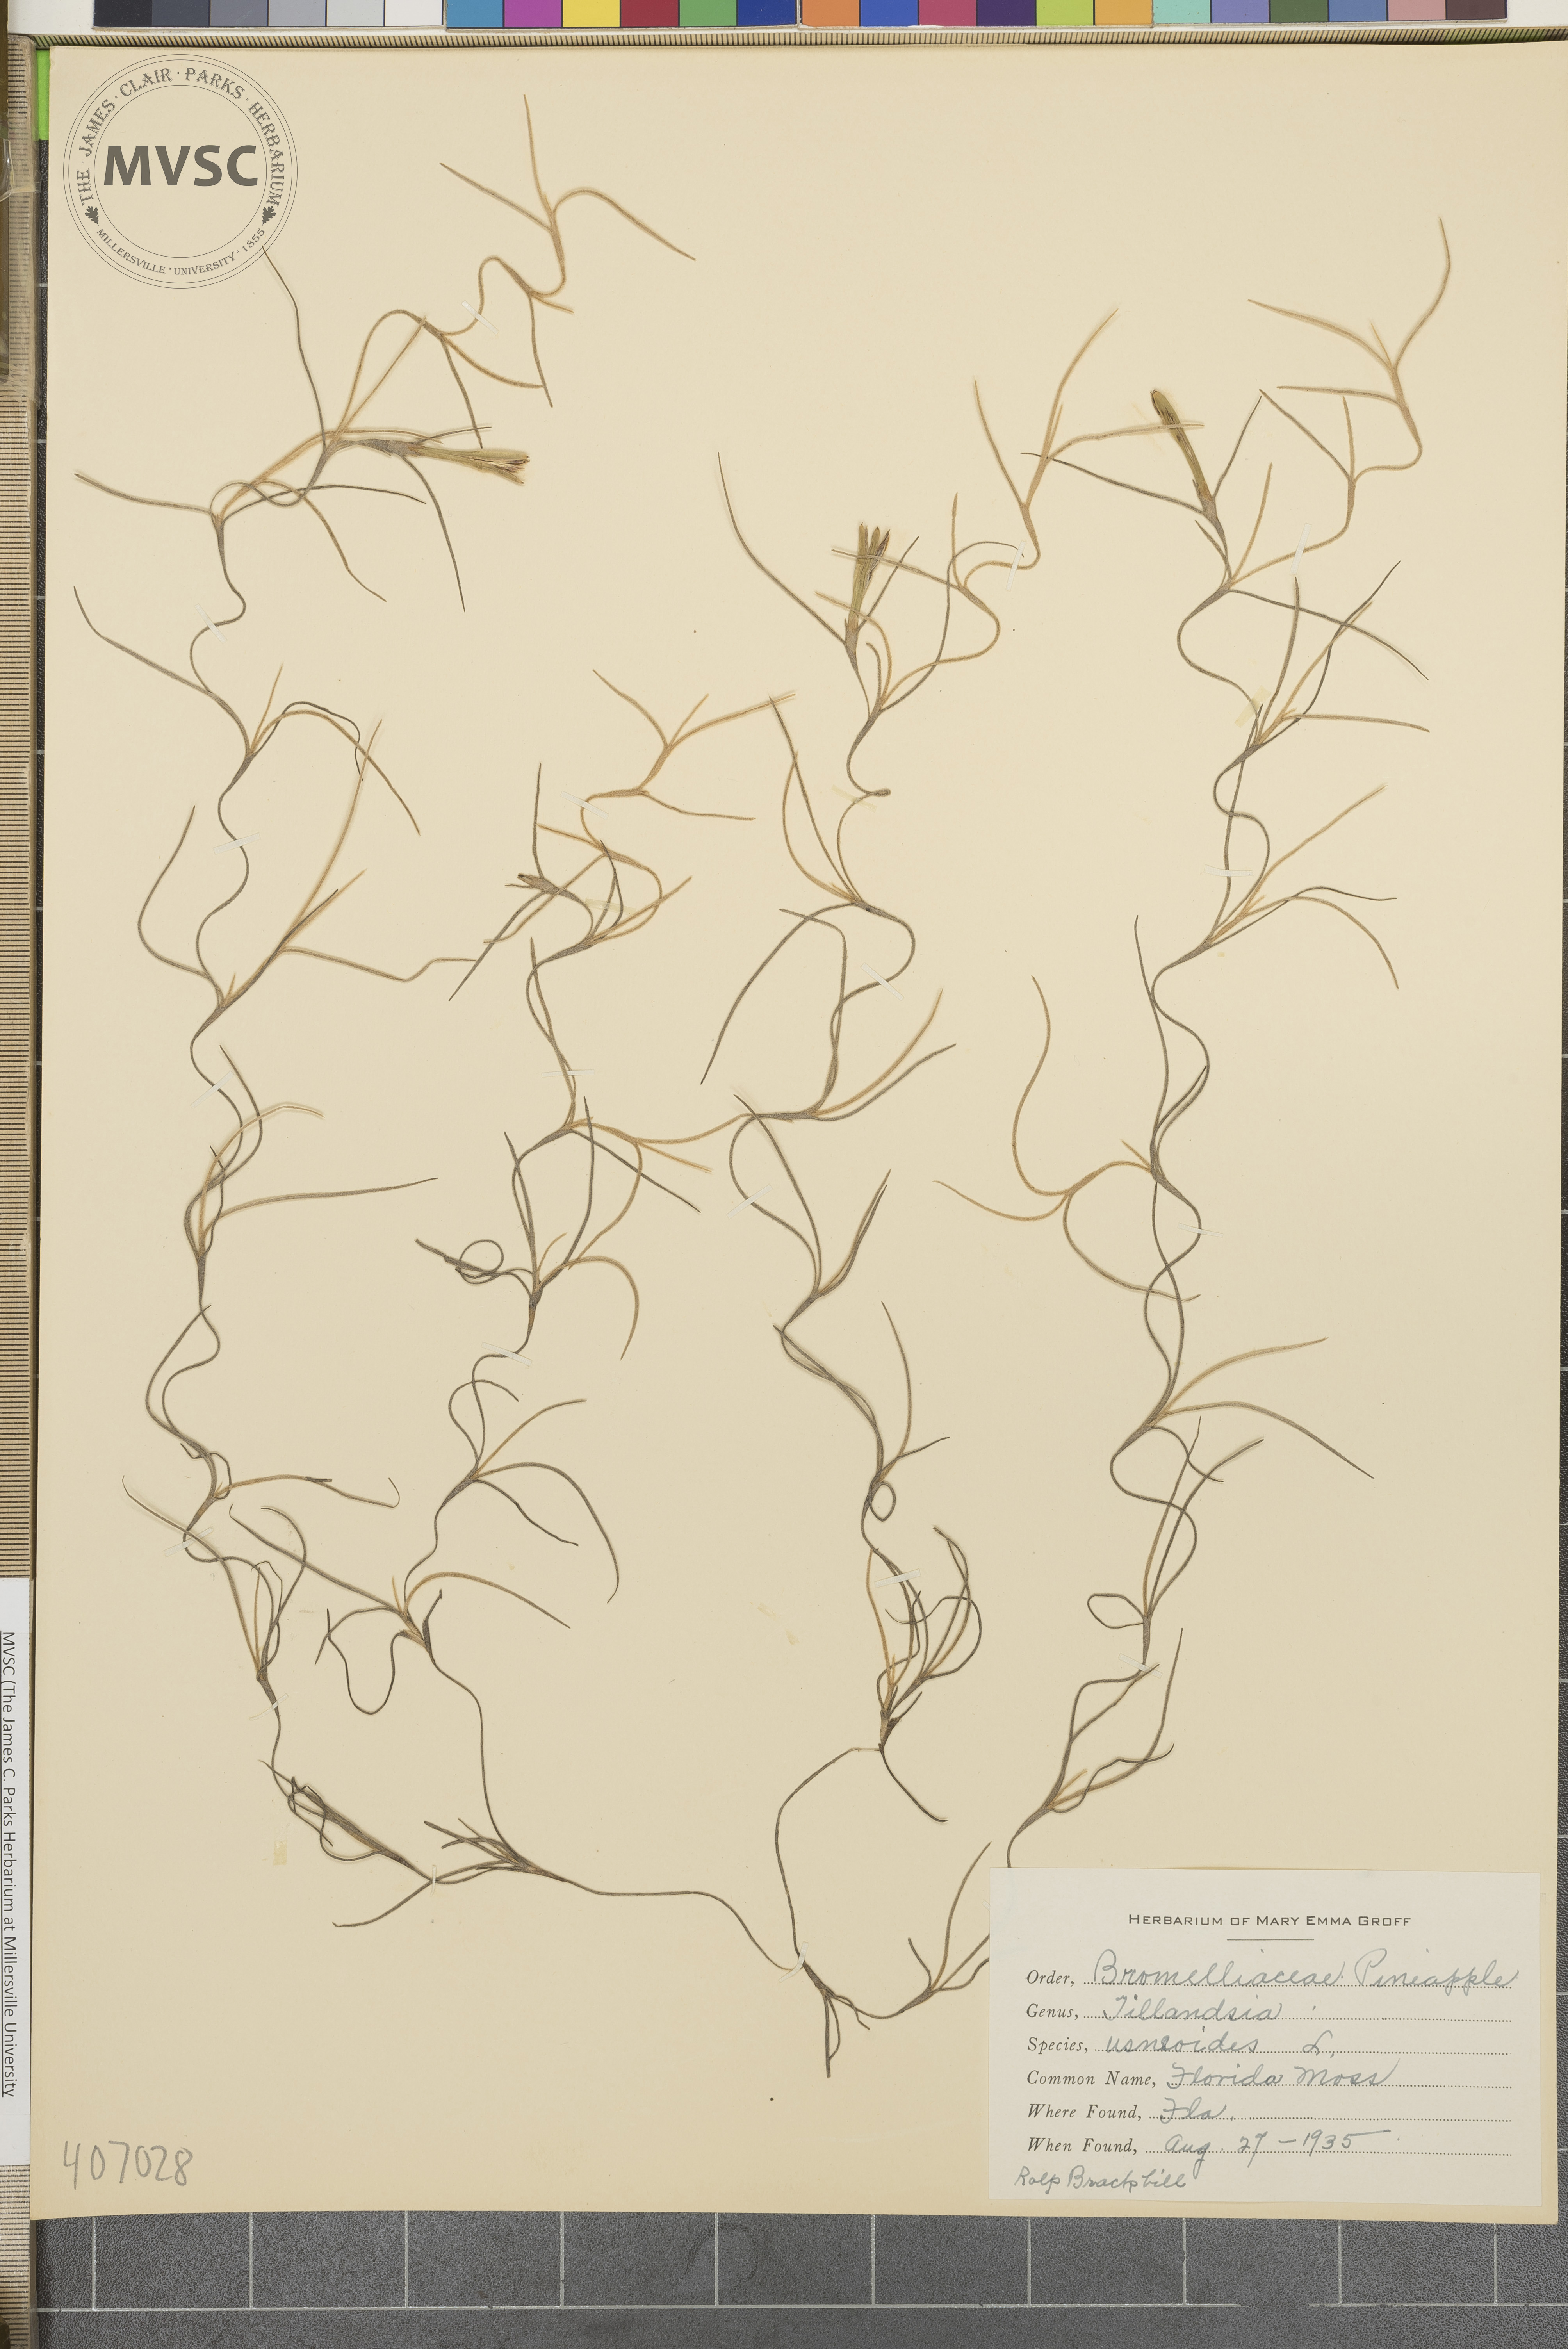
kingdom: Plantae
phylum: Tracheophyta
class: Liliopsida
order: Poales
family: Bromeliaceae
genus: Tillandsia
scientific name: Tillandsia usneoides
